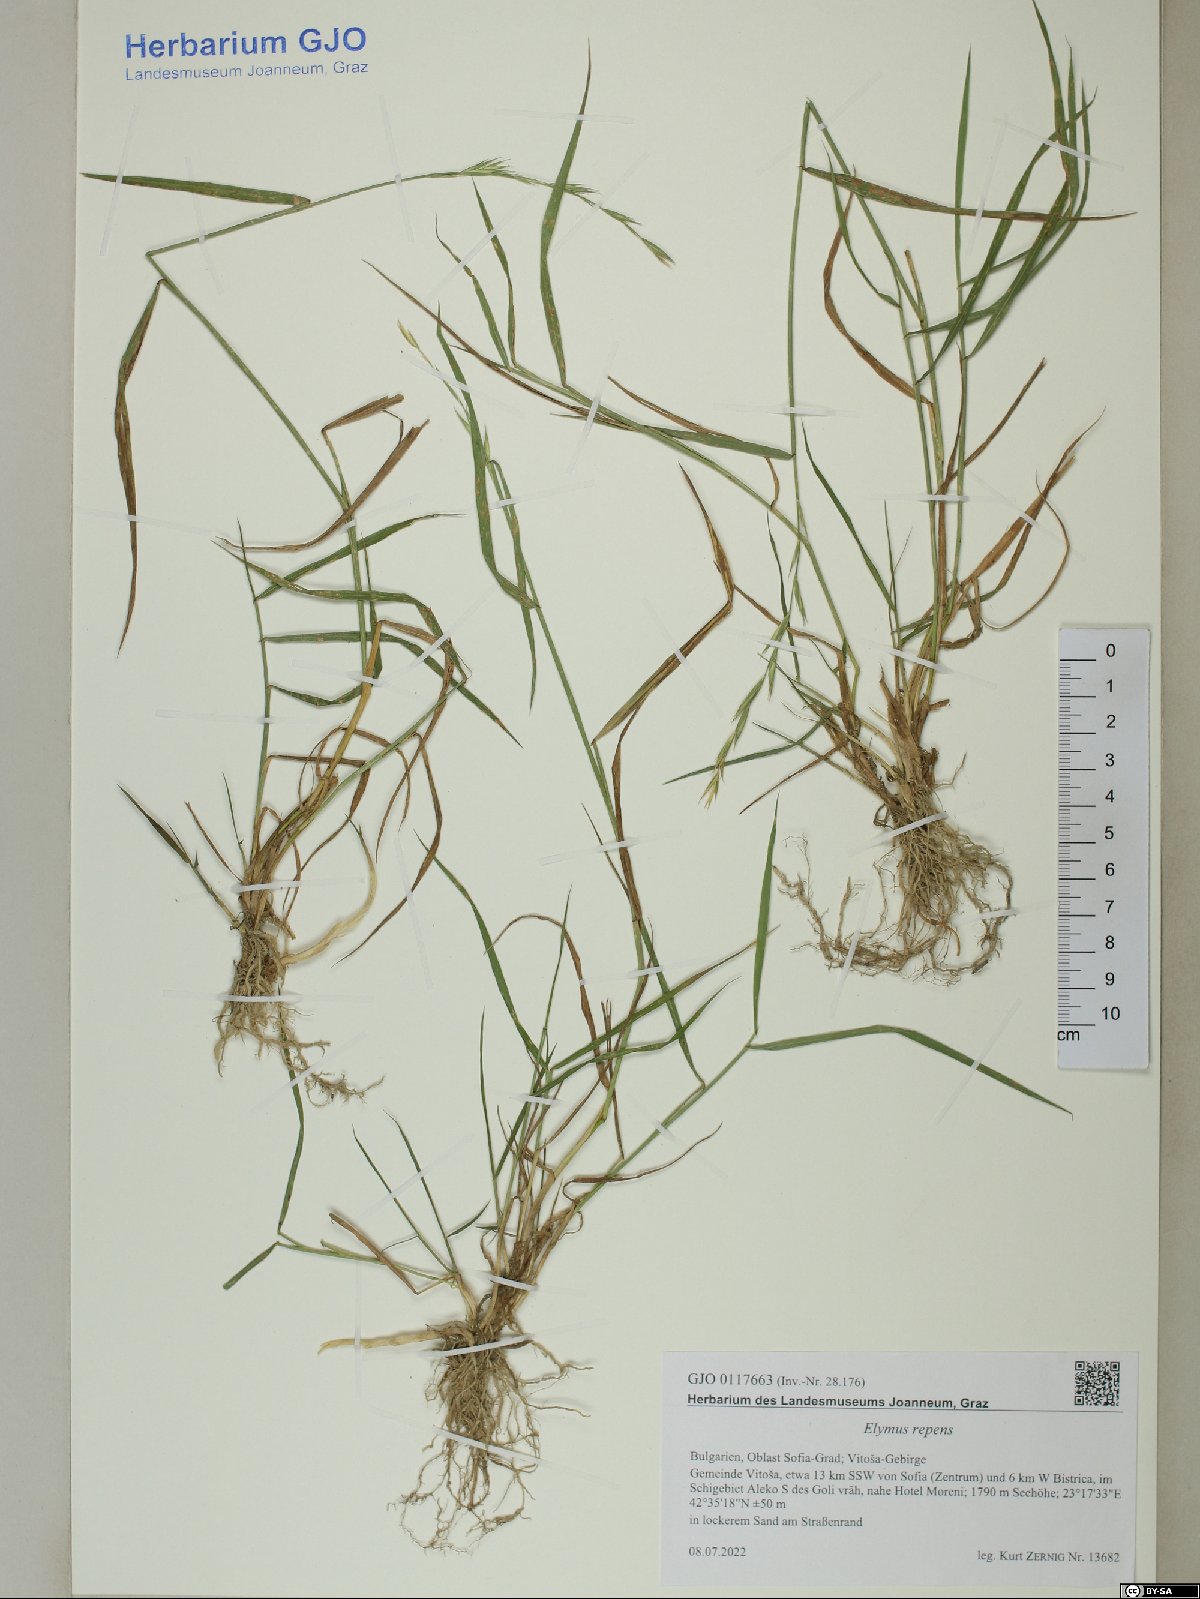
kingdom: Plantae
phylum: Tracheophyta
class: Liliopsida
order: Poales
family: Poaceae
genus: Elymus
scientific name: Elymus repens
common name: Quackgrass
